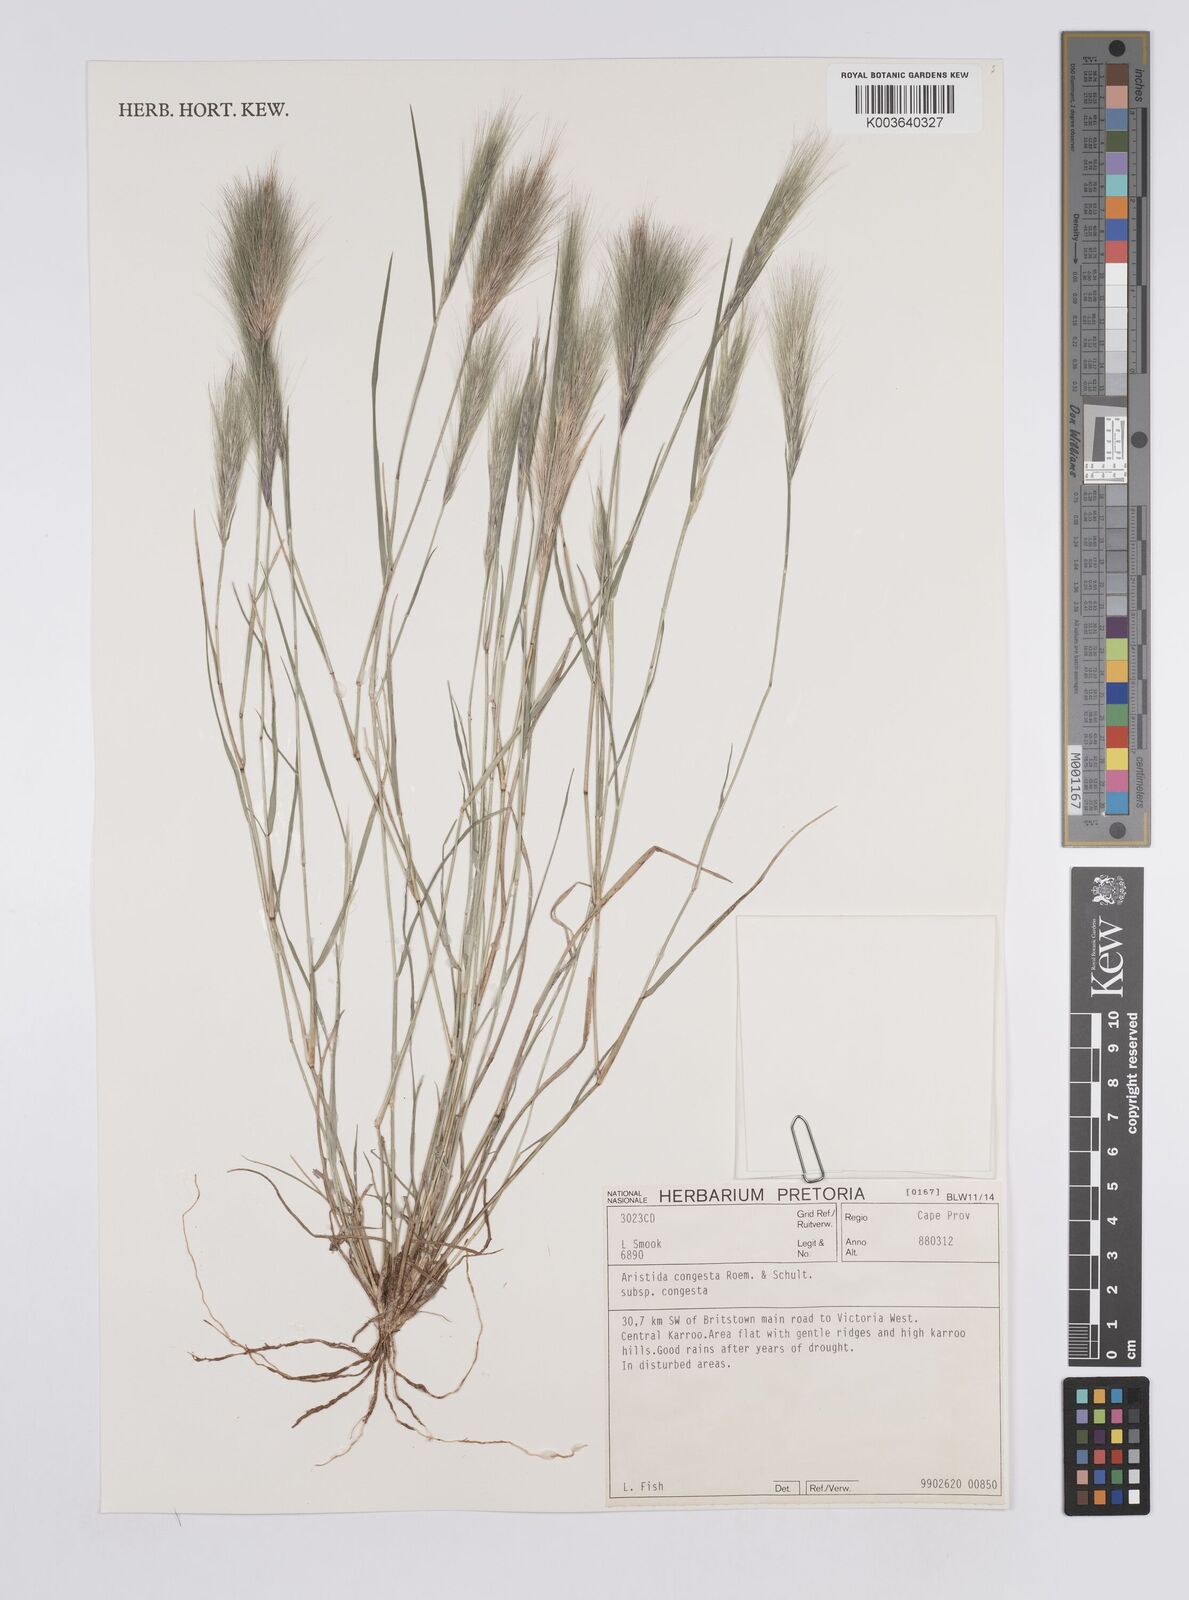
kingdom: Plantae
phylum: Tracheophyta
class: Liliopsida
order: Poales
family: Poaceae
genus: Aristida
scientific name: Aristida congesta
